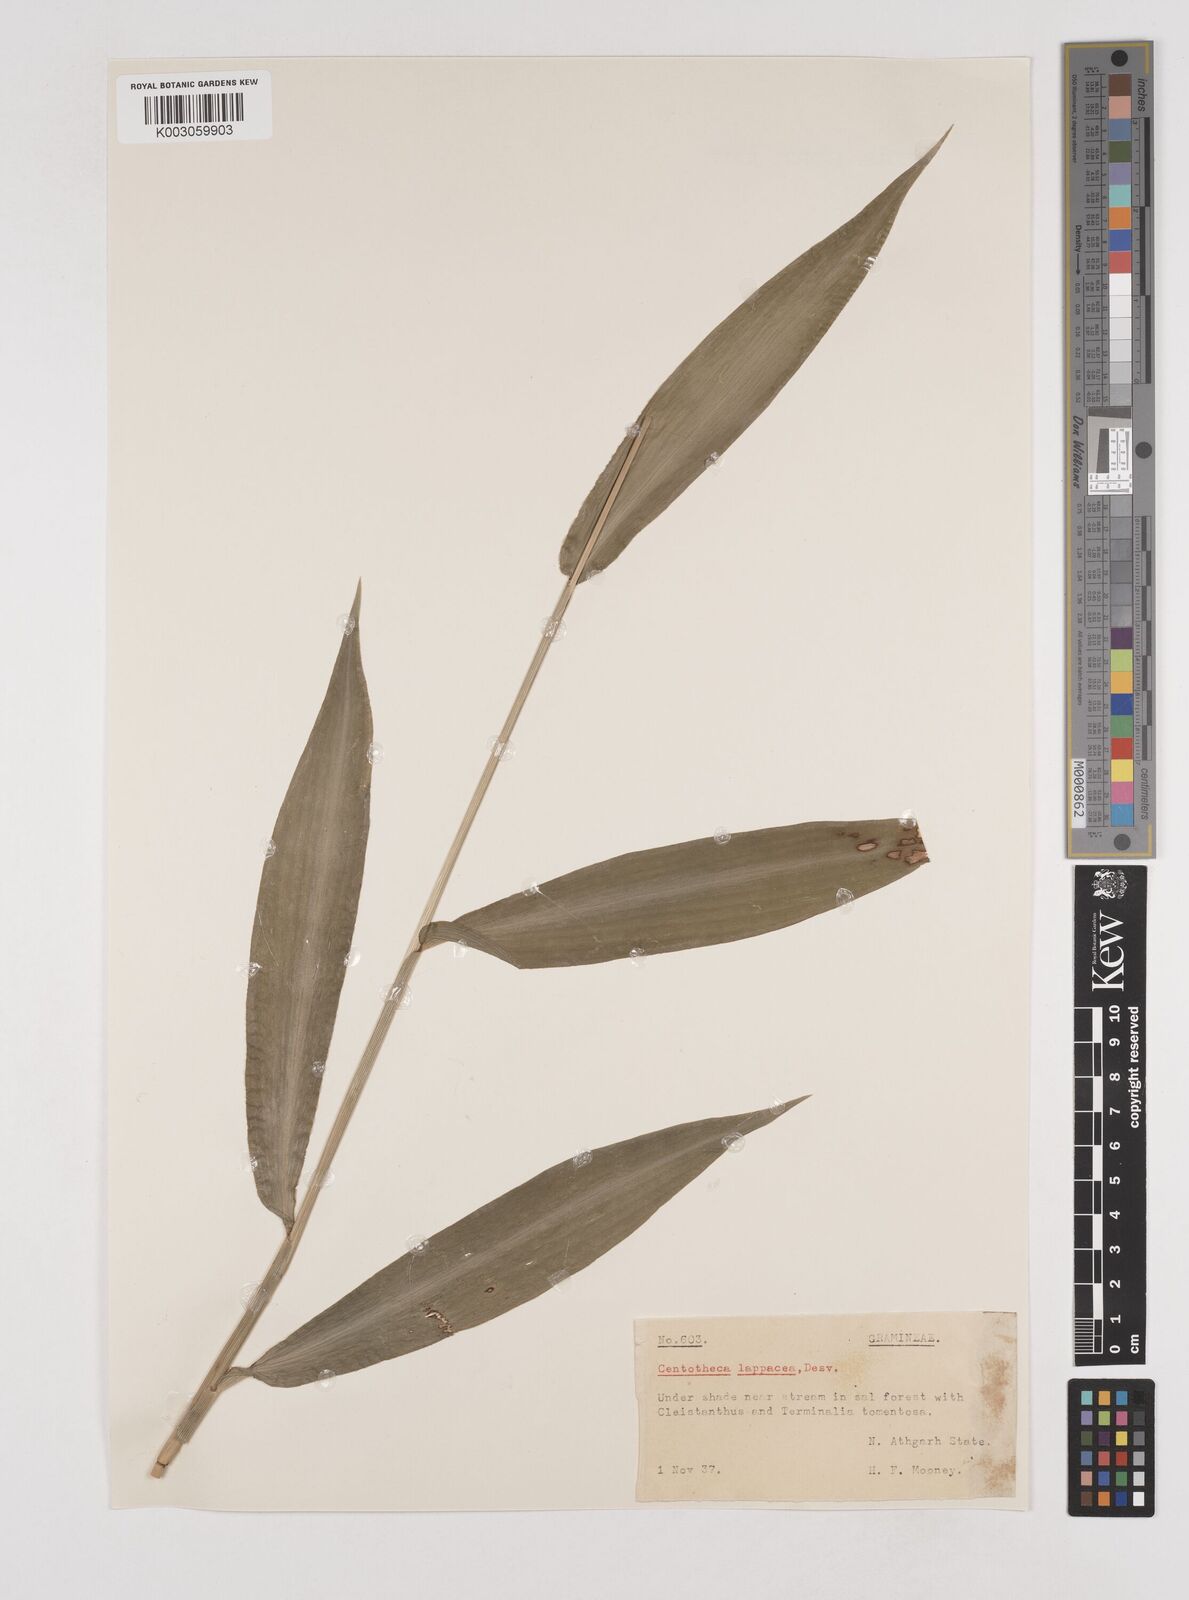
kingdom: Plantae
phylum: Tracheophyta
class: Liliopsida
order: Poales
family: Poaceae
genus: Centotheca
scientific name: Centotheca lappacea
